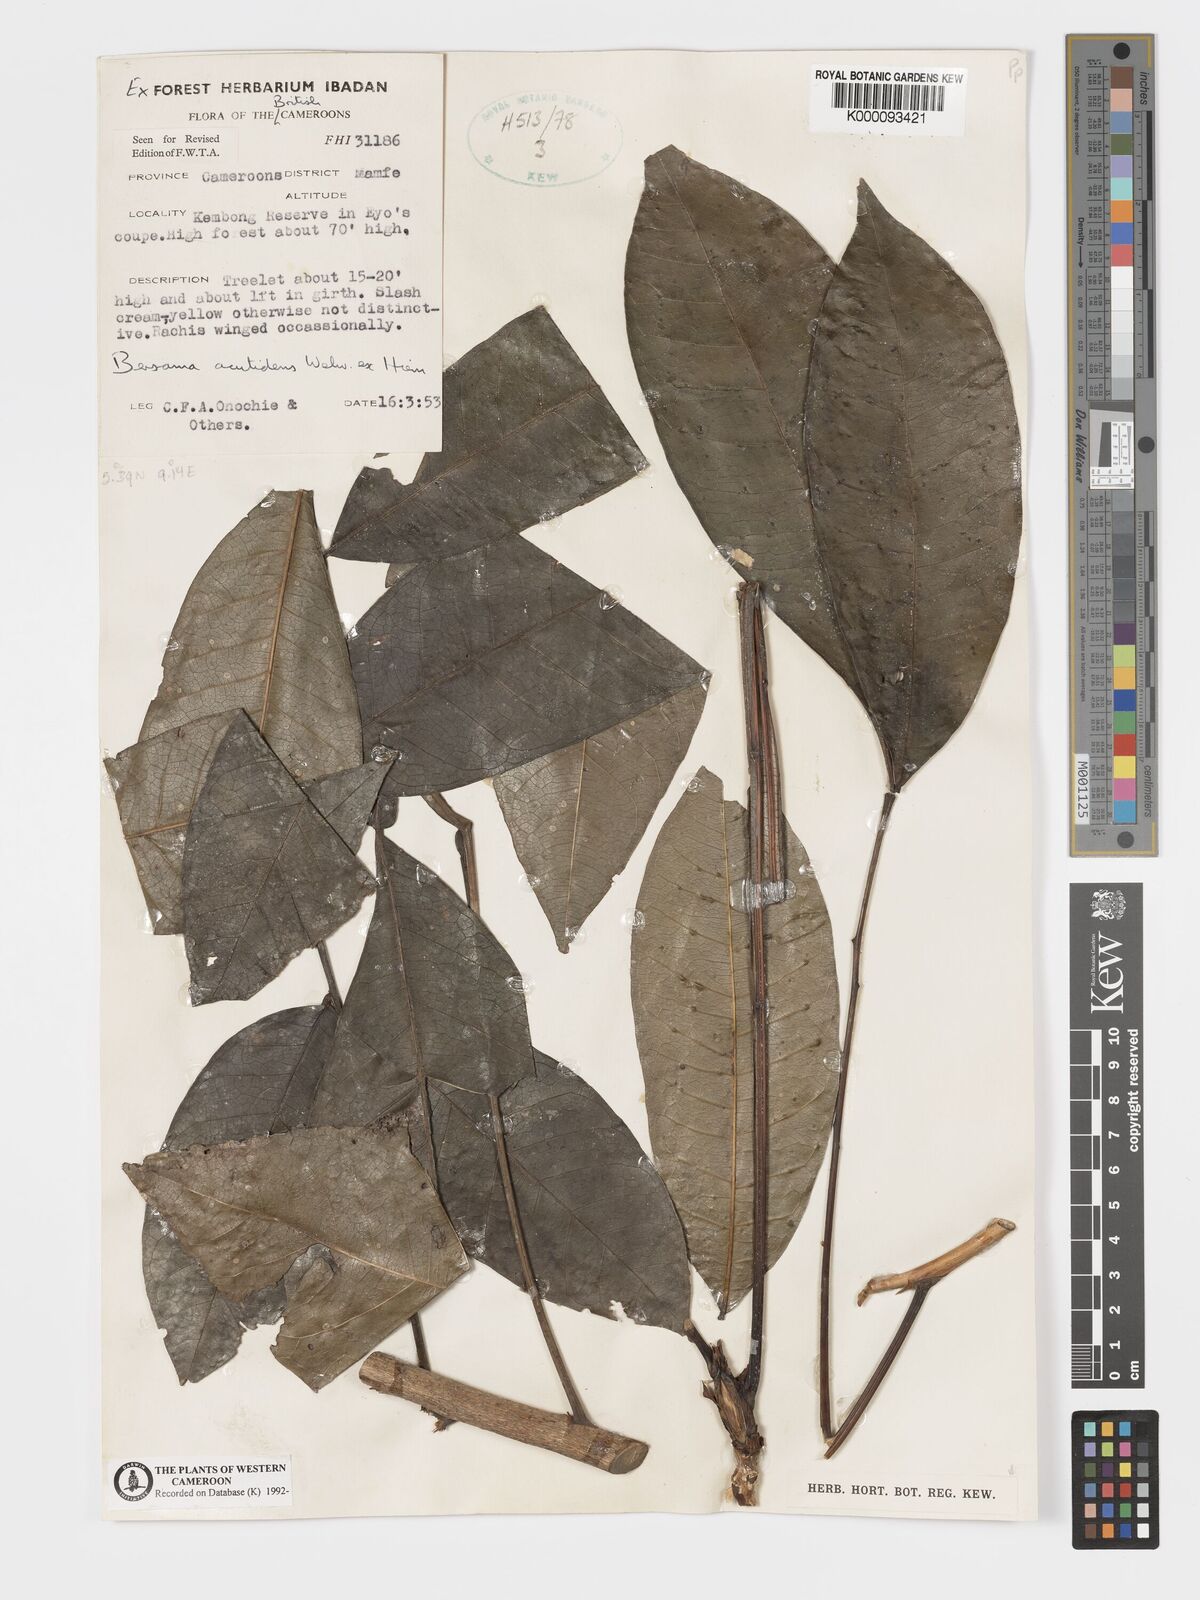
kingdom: Plantae
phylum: Tracheophyta
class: Magnoliopsida
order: Geraniales
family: Melianthaceae
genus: Bersama
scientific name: Bersama acutidens
